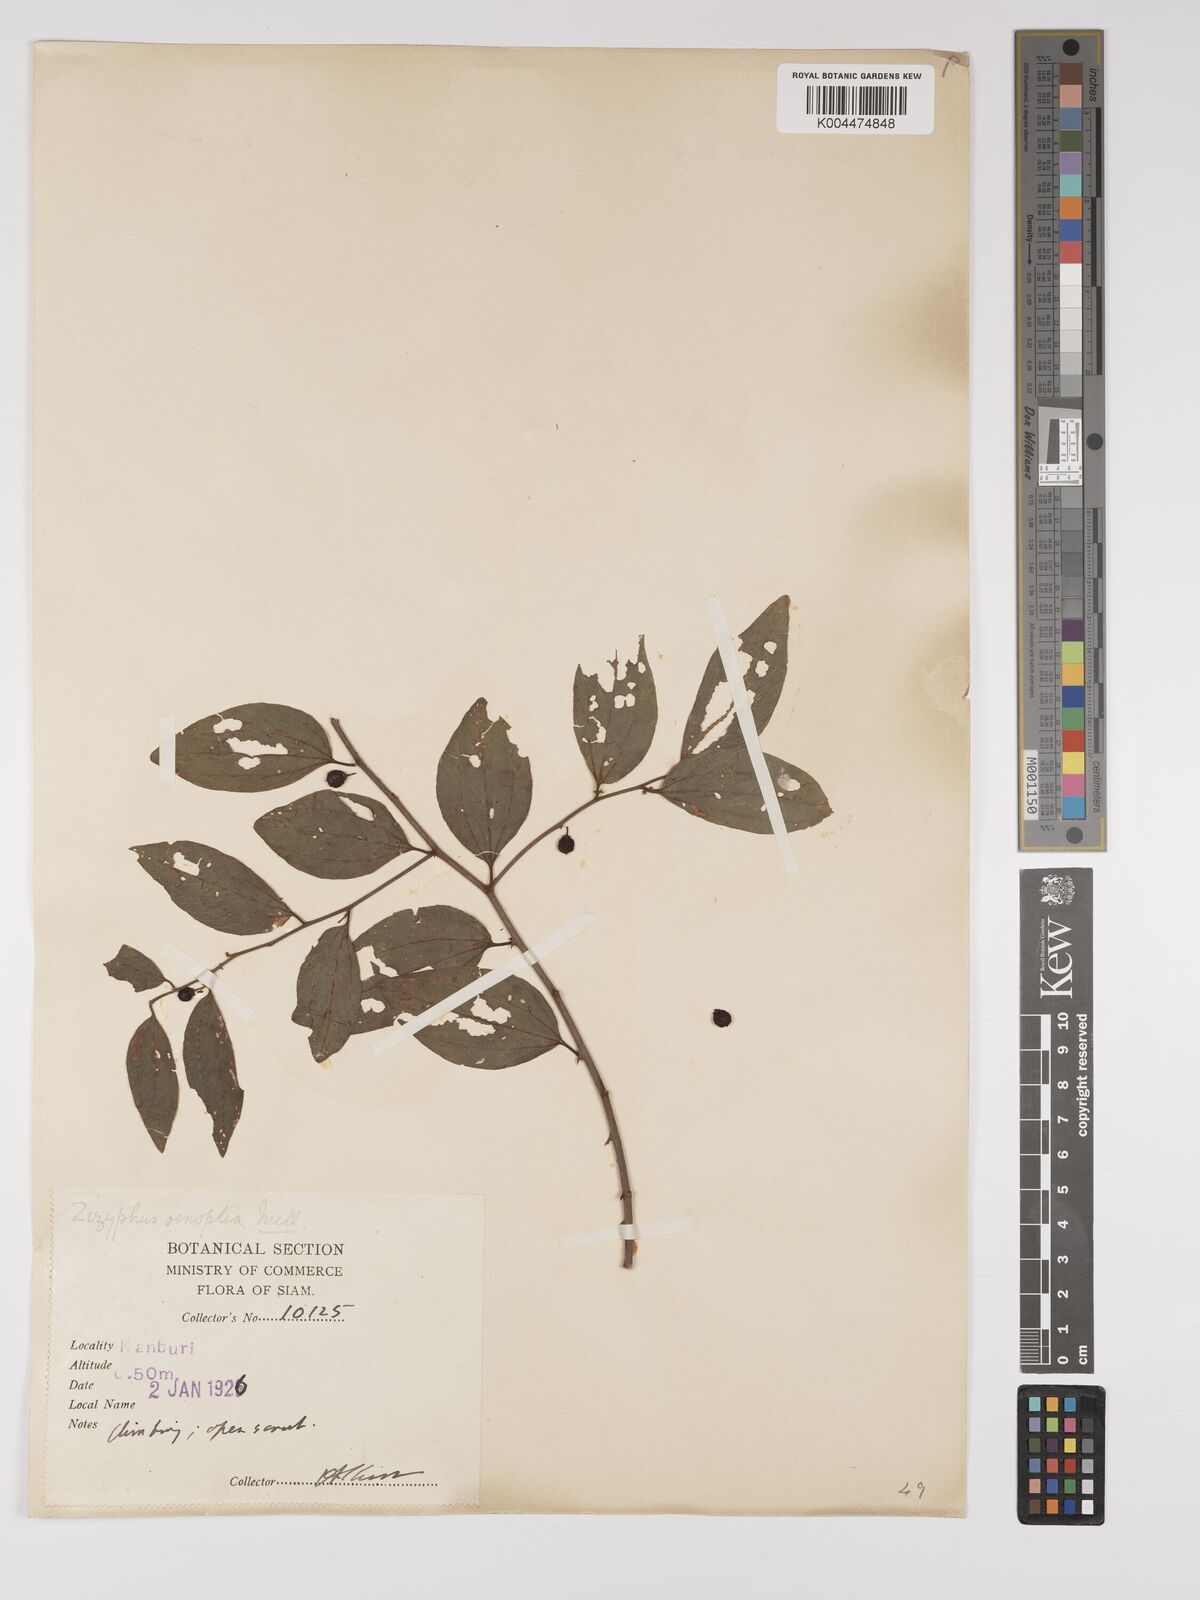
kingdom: Plantae
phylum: Tracheophyta
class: Magnoliopsida
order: Rosales
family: Rhamnaceae
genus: Ziziphus
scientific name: Ziziphus oenopolia
